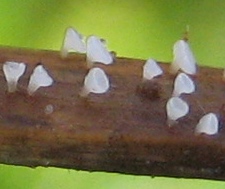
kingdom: Fungi
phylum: Basidiomycota
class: Agaricomycetes
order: Agaricales
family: Marasmiaceae
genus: Calyptella
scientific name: Calyptella capula
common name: hvidlig nældehue
